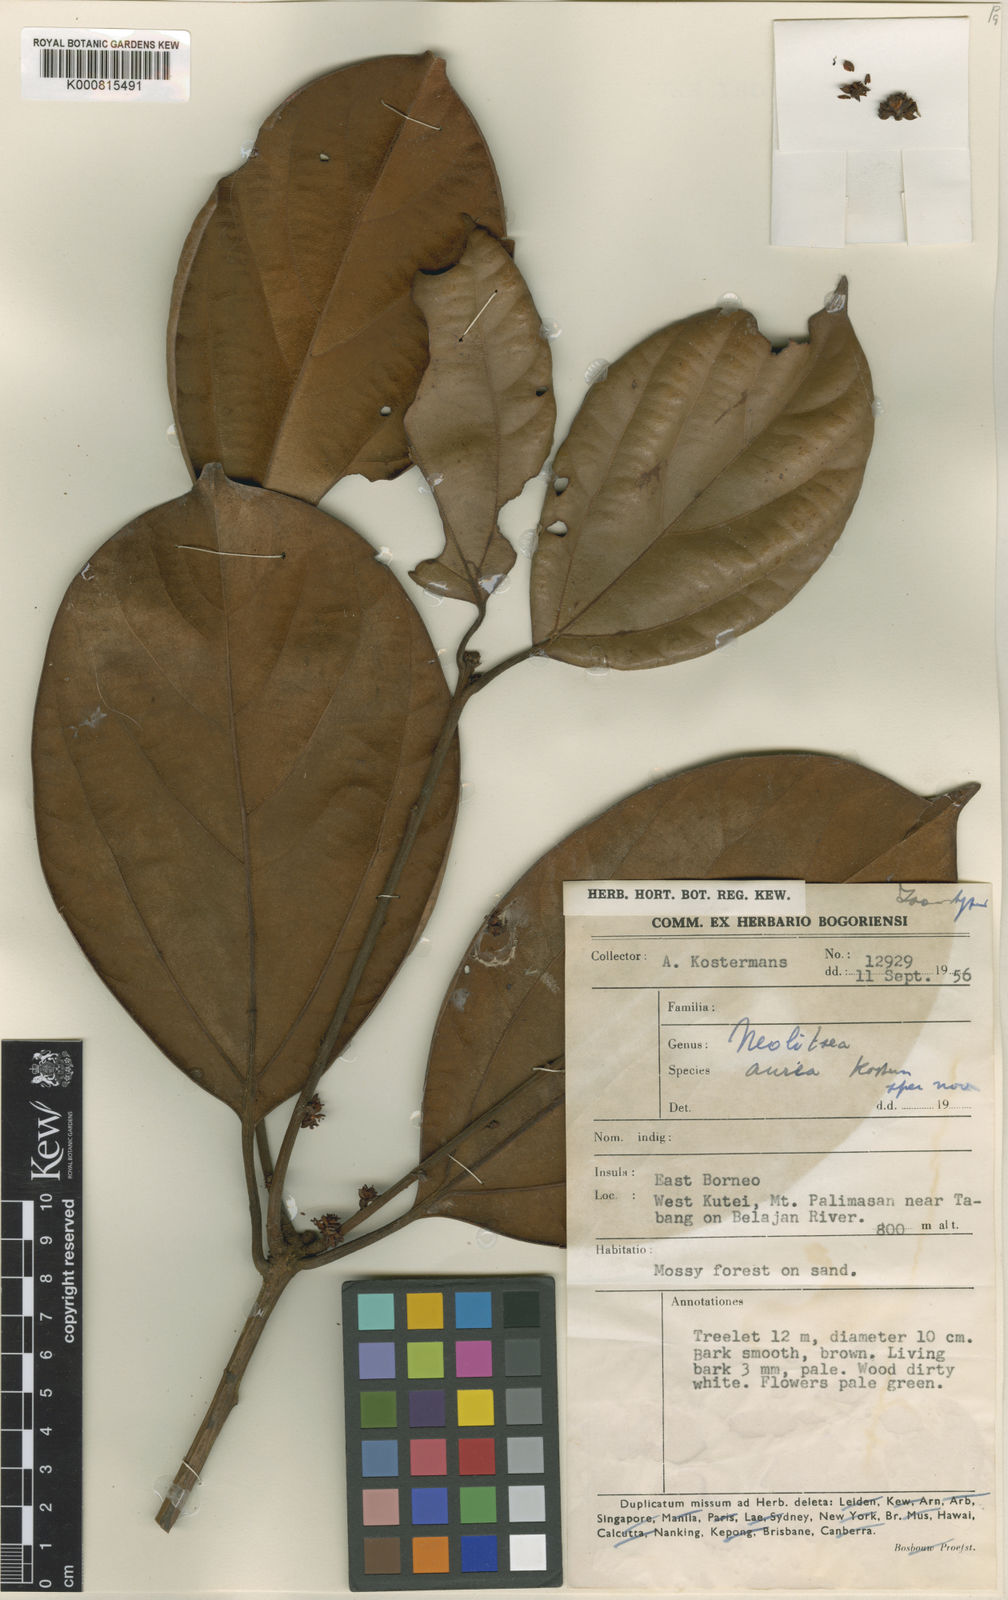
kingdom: Plantae
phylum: Tracheophyta
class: Magnoliopsida
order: Laurales
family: Lauraceae
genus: Neolitsea
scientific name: Neolitsea auricolor
